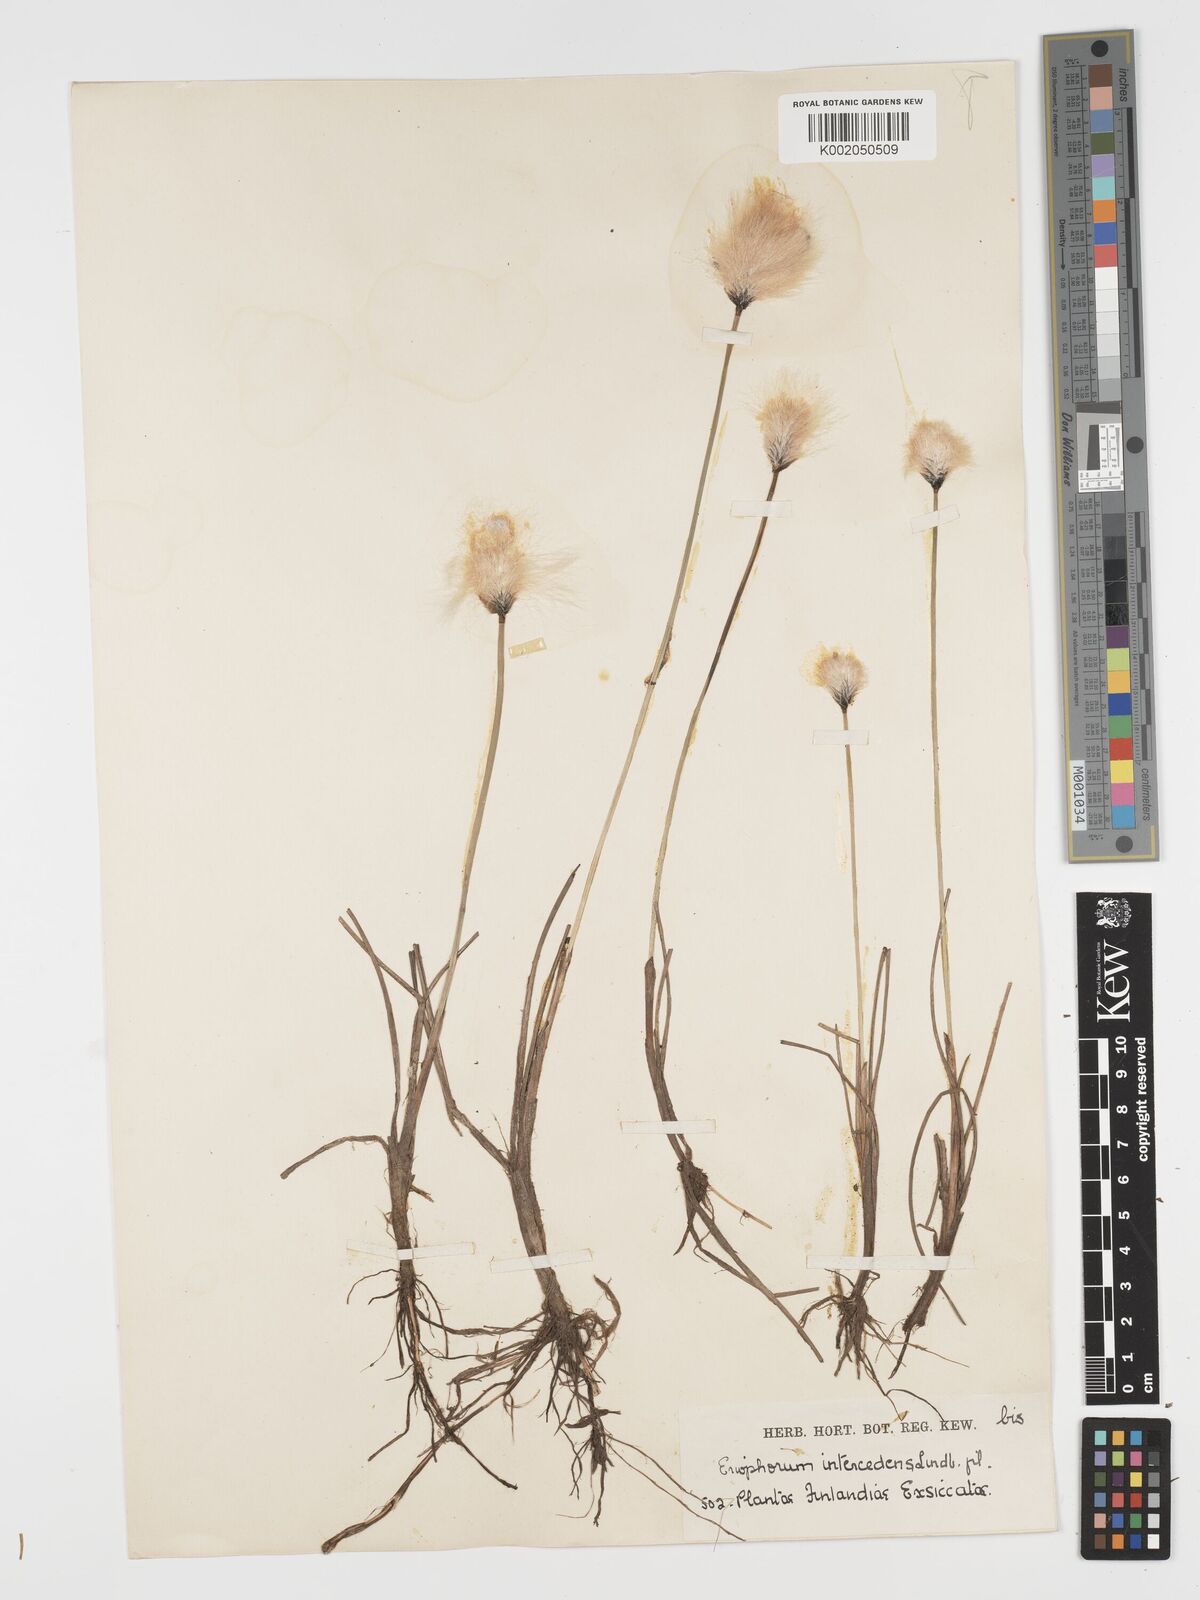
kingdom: Plantae
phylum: Tracheophyta
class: Liliopsida
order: Poales
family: Cyperaceae
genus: Eriophorum
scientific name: Eriophorum medium
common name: Intermediate cottongrass
